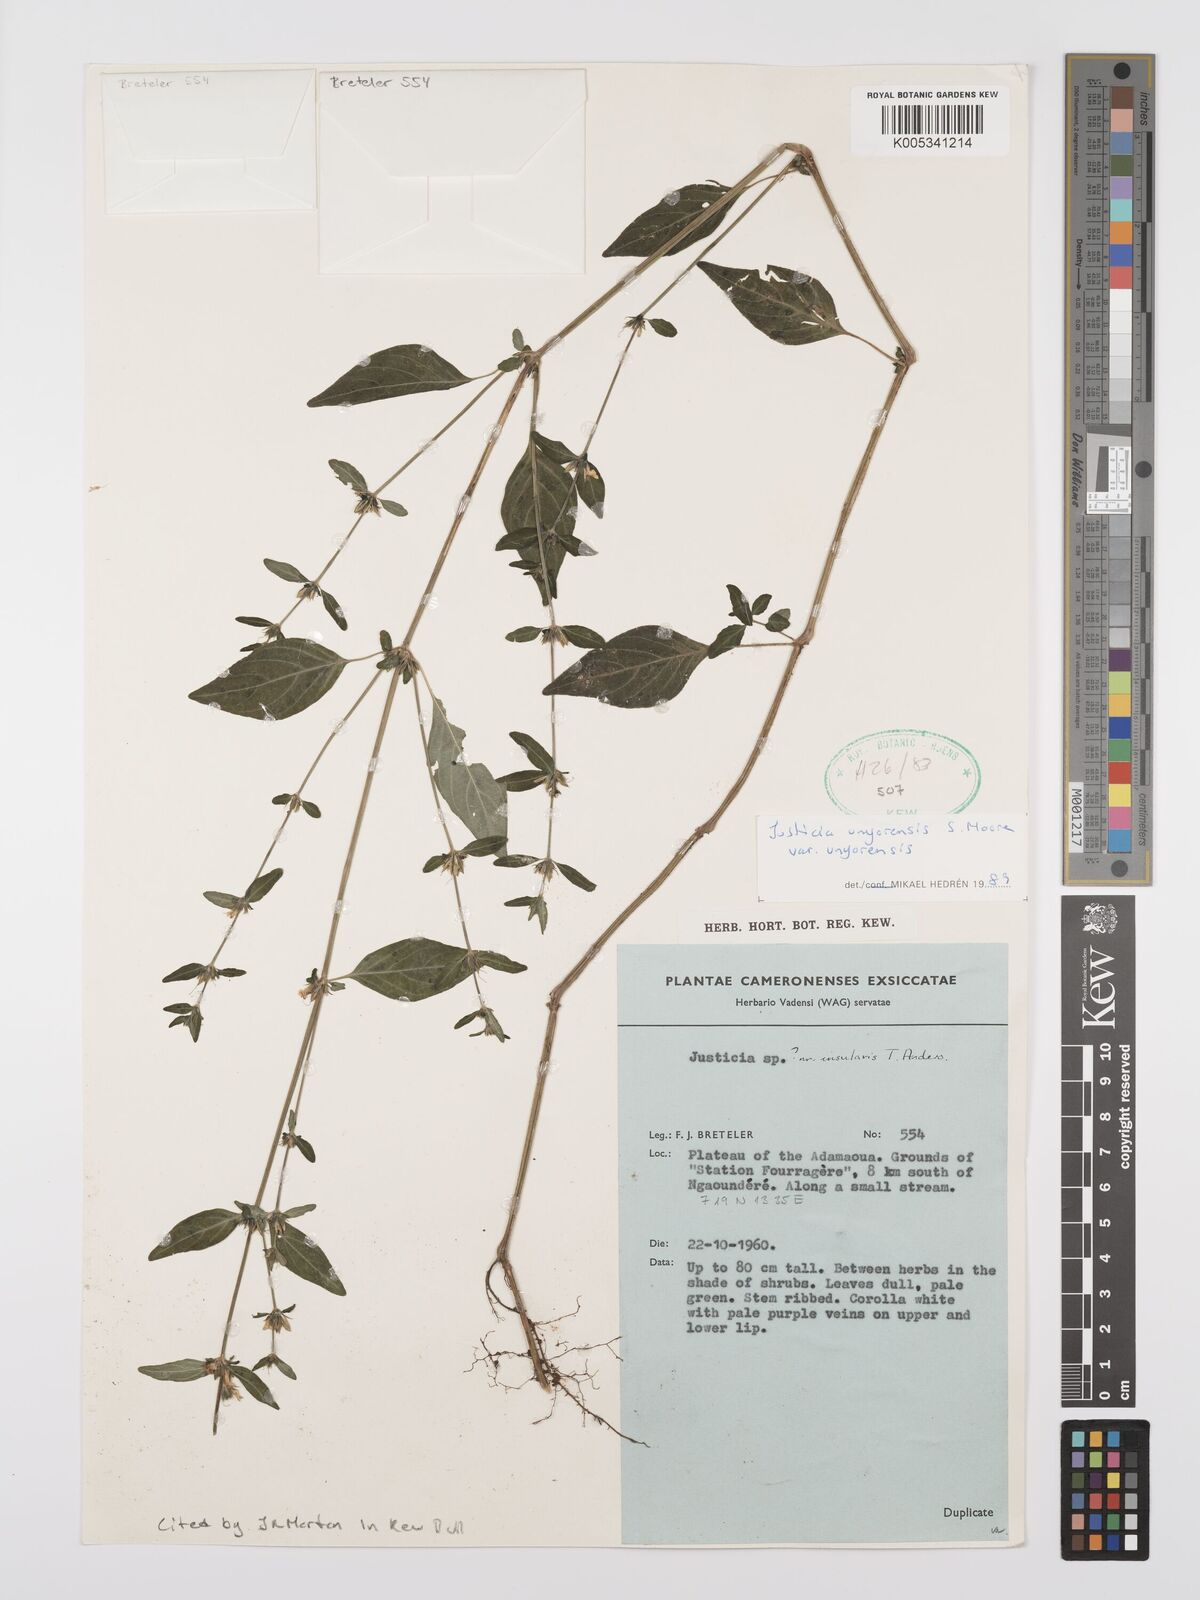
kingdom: Plantae
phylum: Tracheophyta
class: Magnoliopsida
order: Lamiales
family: Acanthaceae
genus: Justicia
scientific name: Justicia unyorensis
